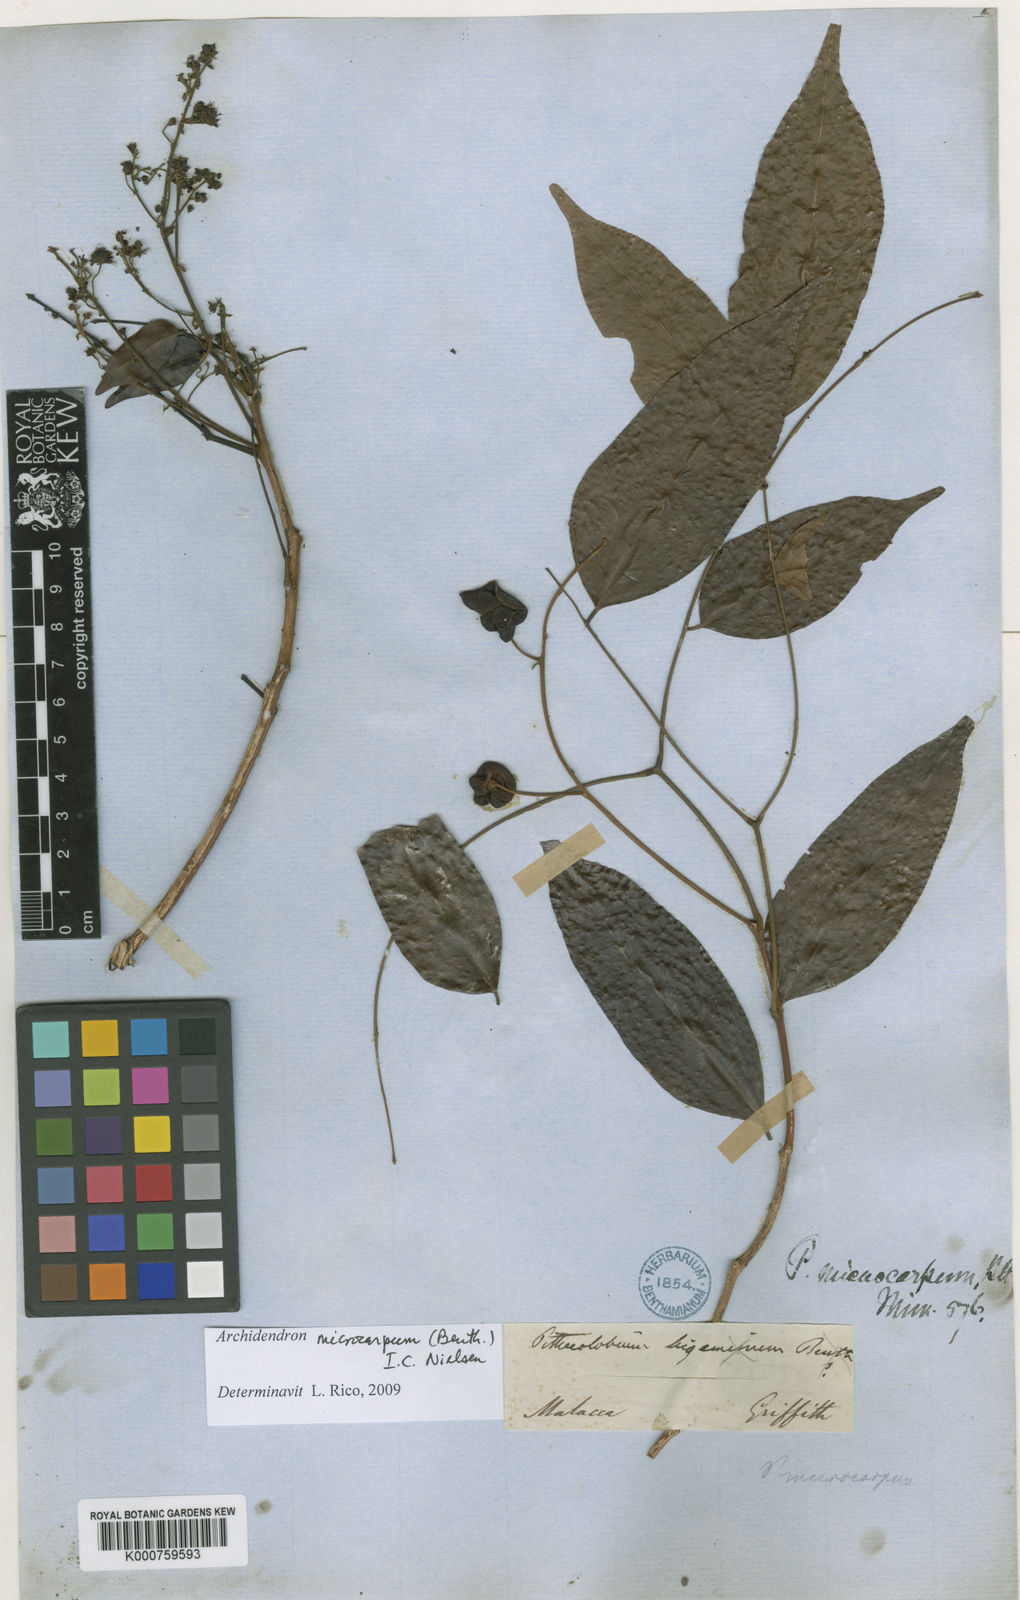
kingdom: Plantae
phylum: Tracheophyta
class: Magnoliopsida
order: Fabales
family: Fabaceae
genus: Archidendron
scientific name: Archidendron microcarpum
